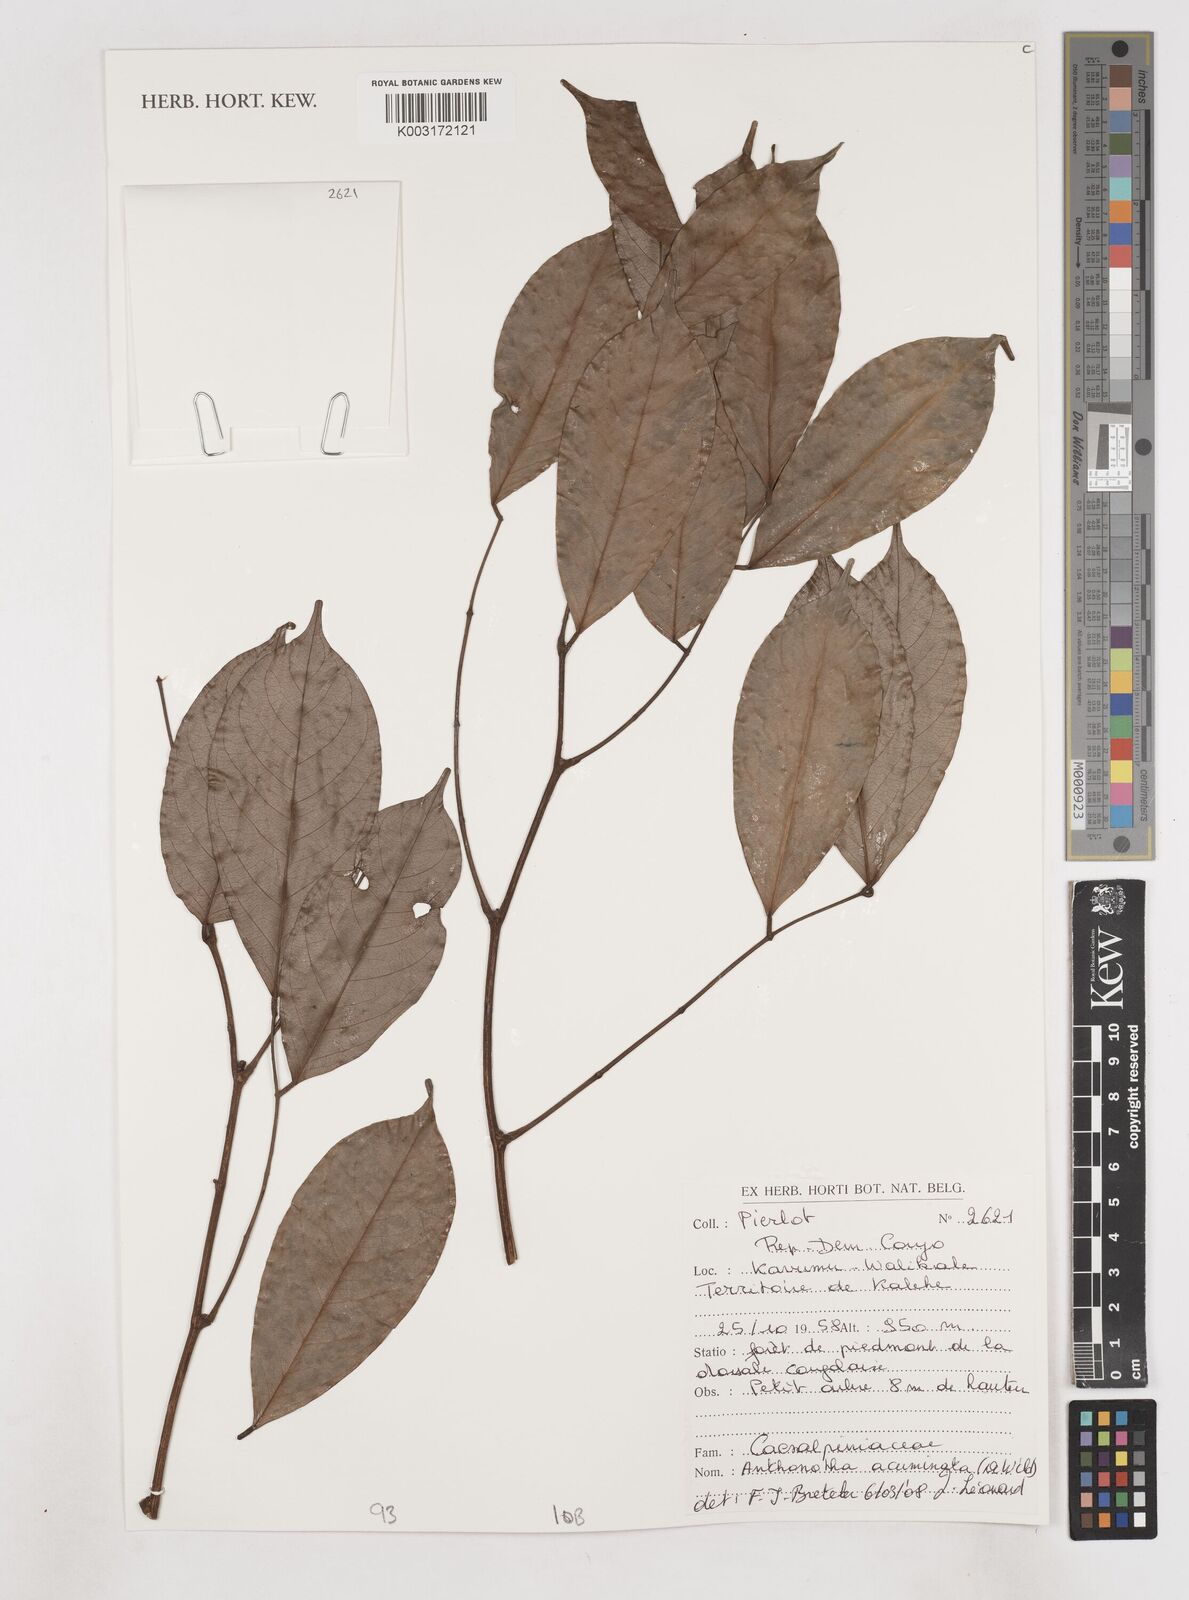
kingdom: Plantae
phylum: Tracheophyta
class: Magnoliopsida
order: Fabales
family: Fabaceae
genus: Anthonotha
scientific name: Anthonotha acuminata
